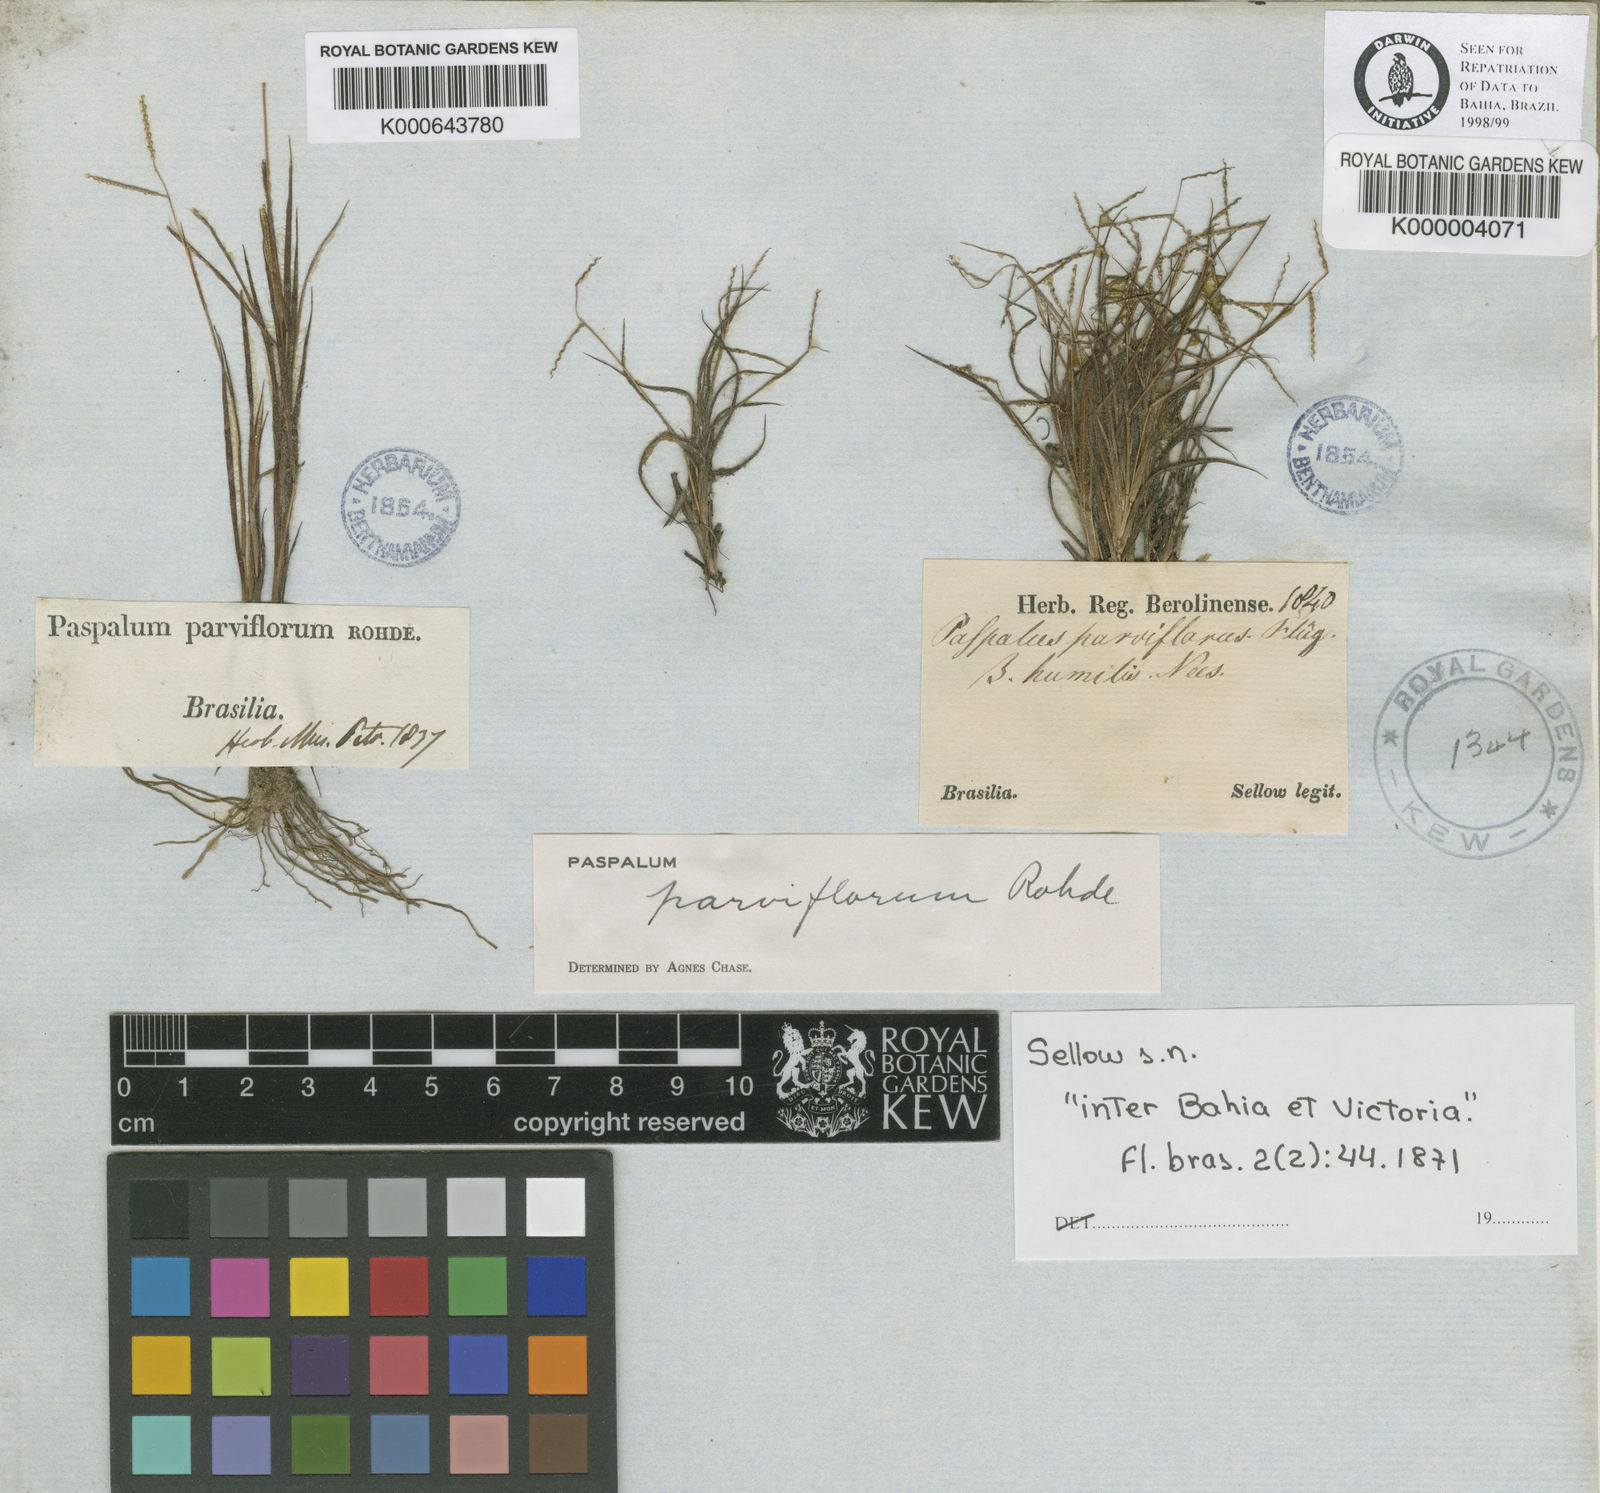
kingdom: Plantae
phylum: Tracheophyta
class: Liliopsida
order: Poales
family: Poaceae
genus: Paspalum
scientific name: Paspalum
